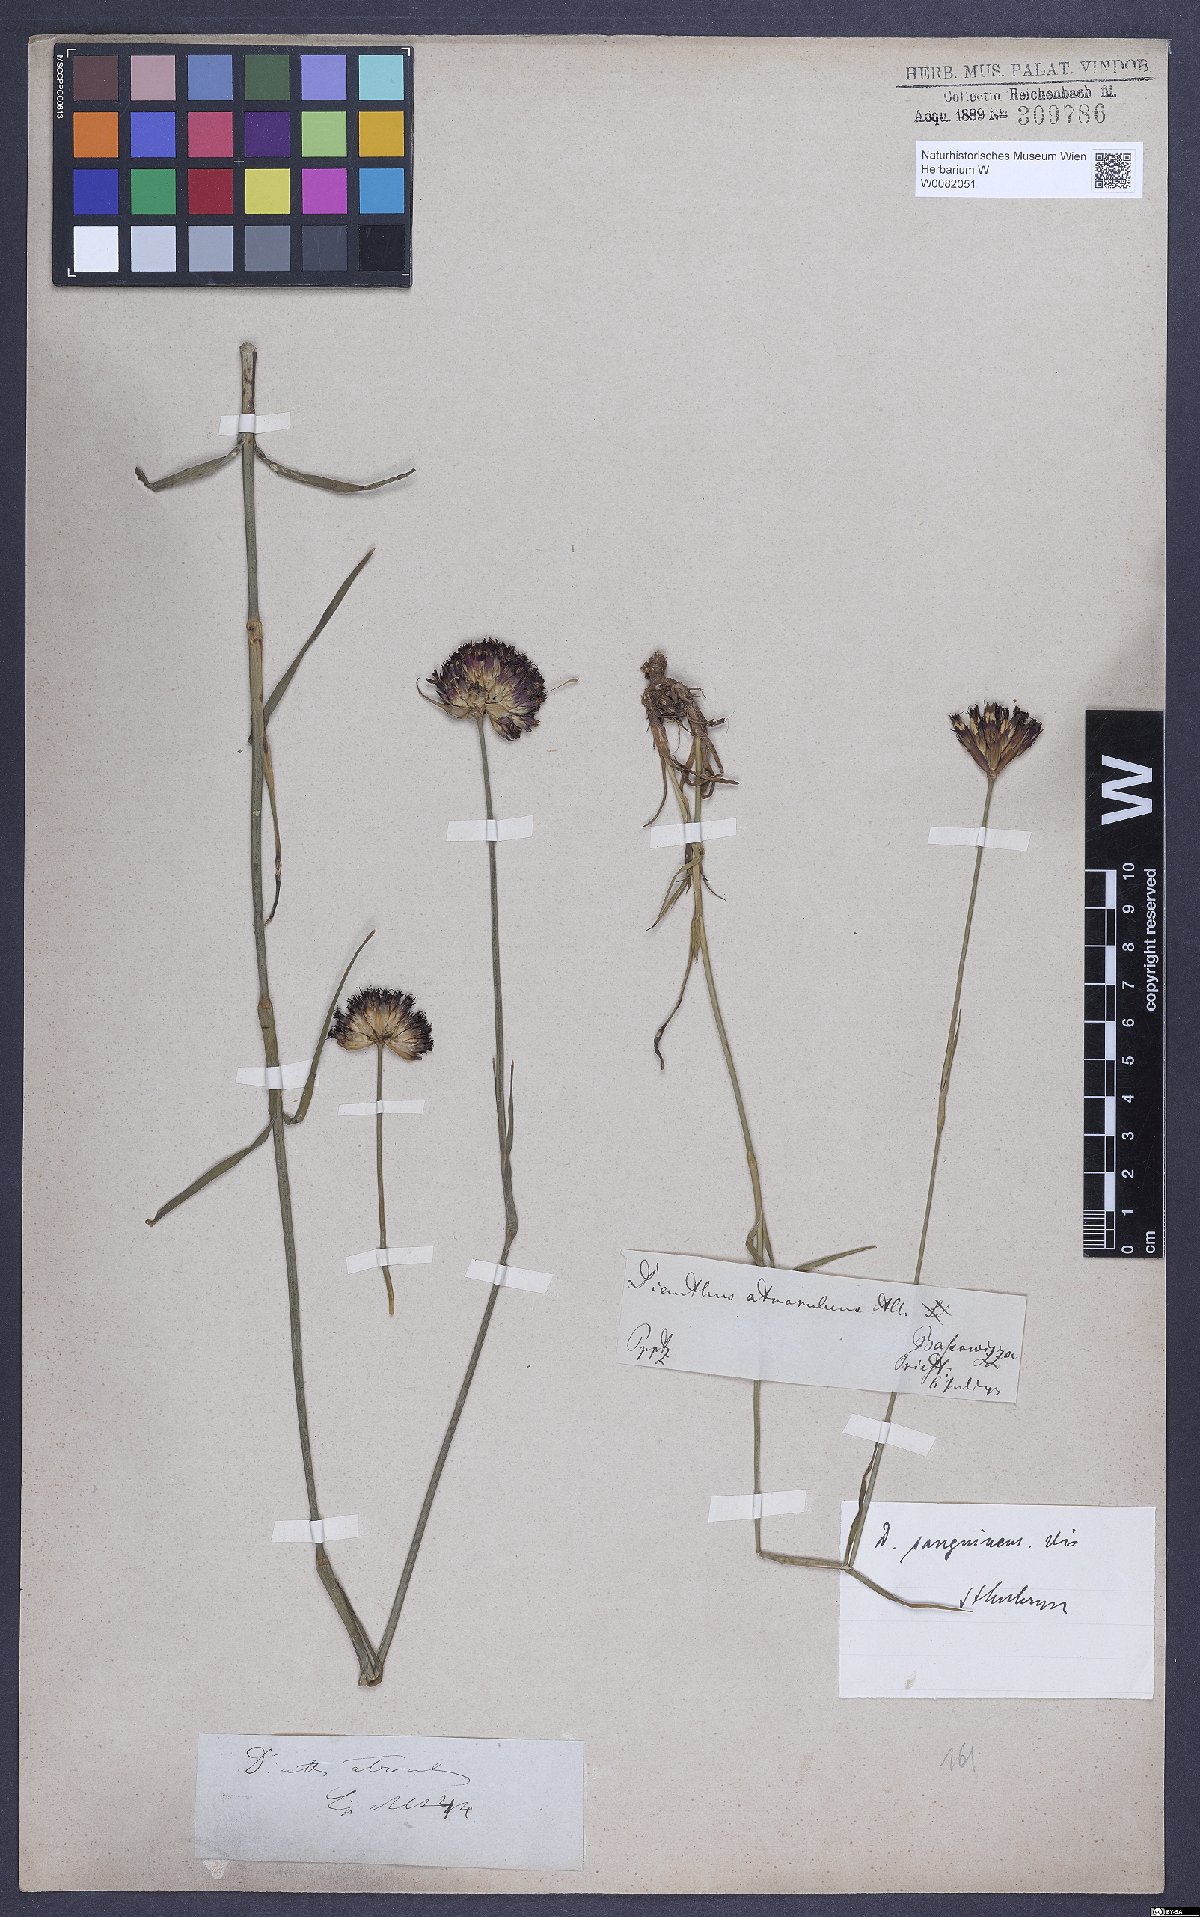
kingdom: Plantae
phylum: Tracheophyta
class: Magnoliopsida
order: Caryophyllales
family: Caryophyllaceae
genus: Dianthus
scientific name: Dianthus carthusianorum
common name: Carthusian pink
